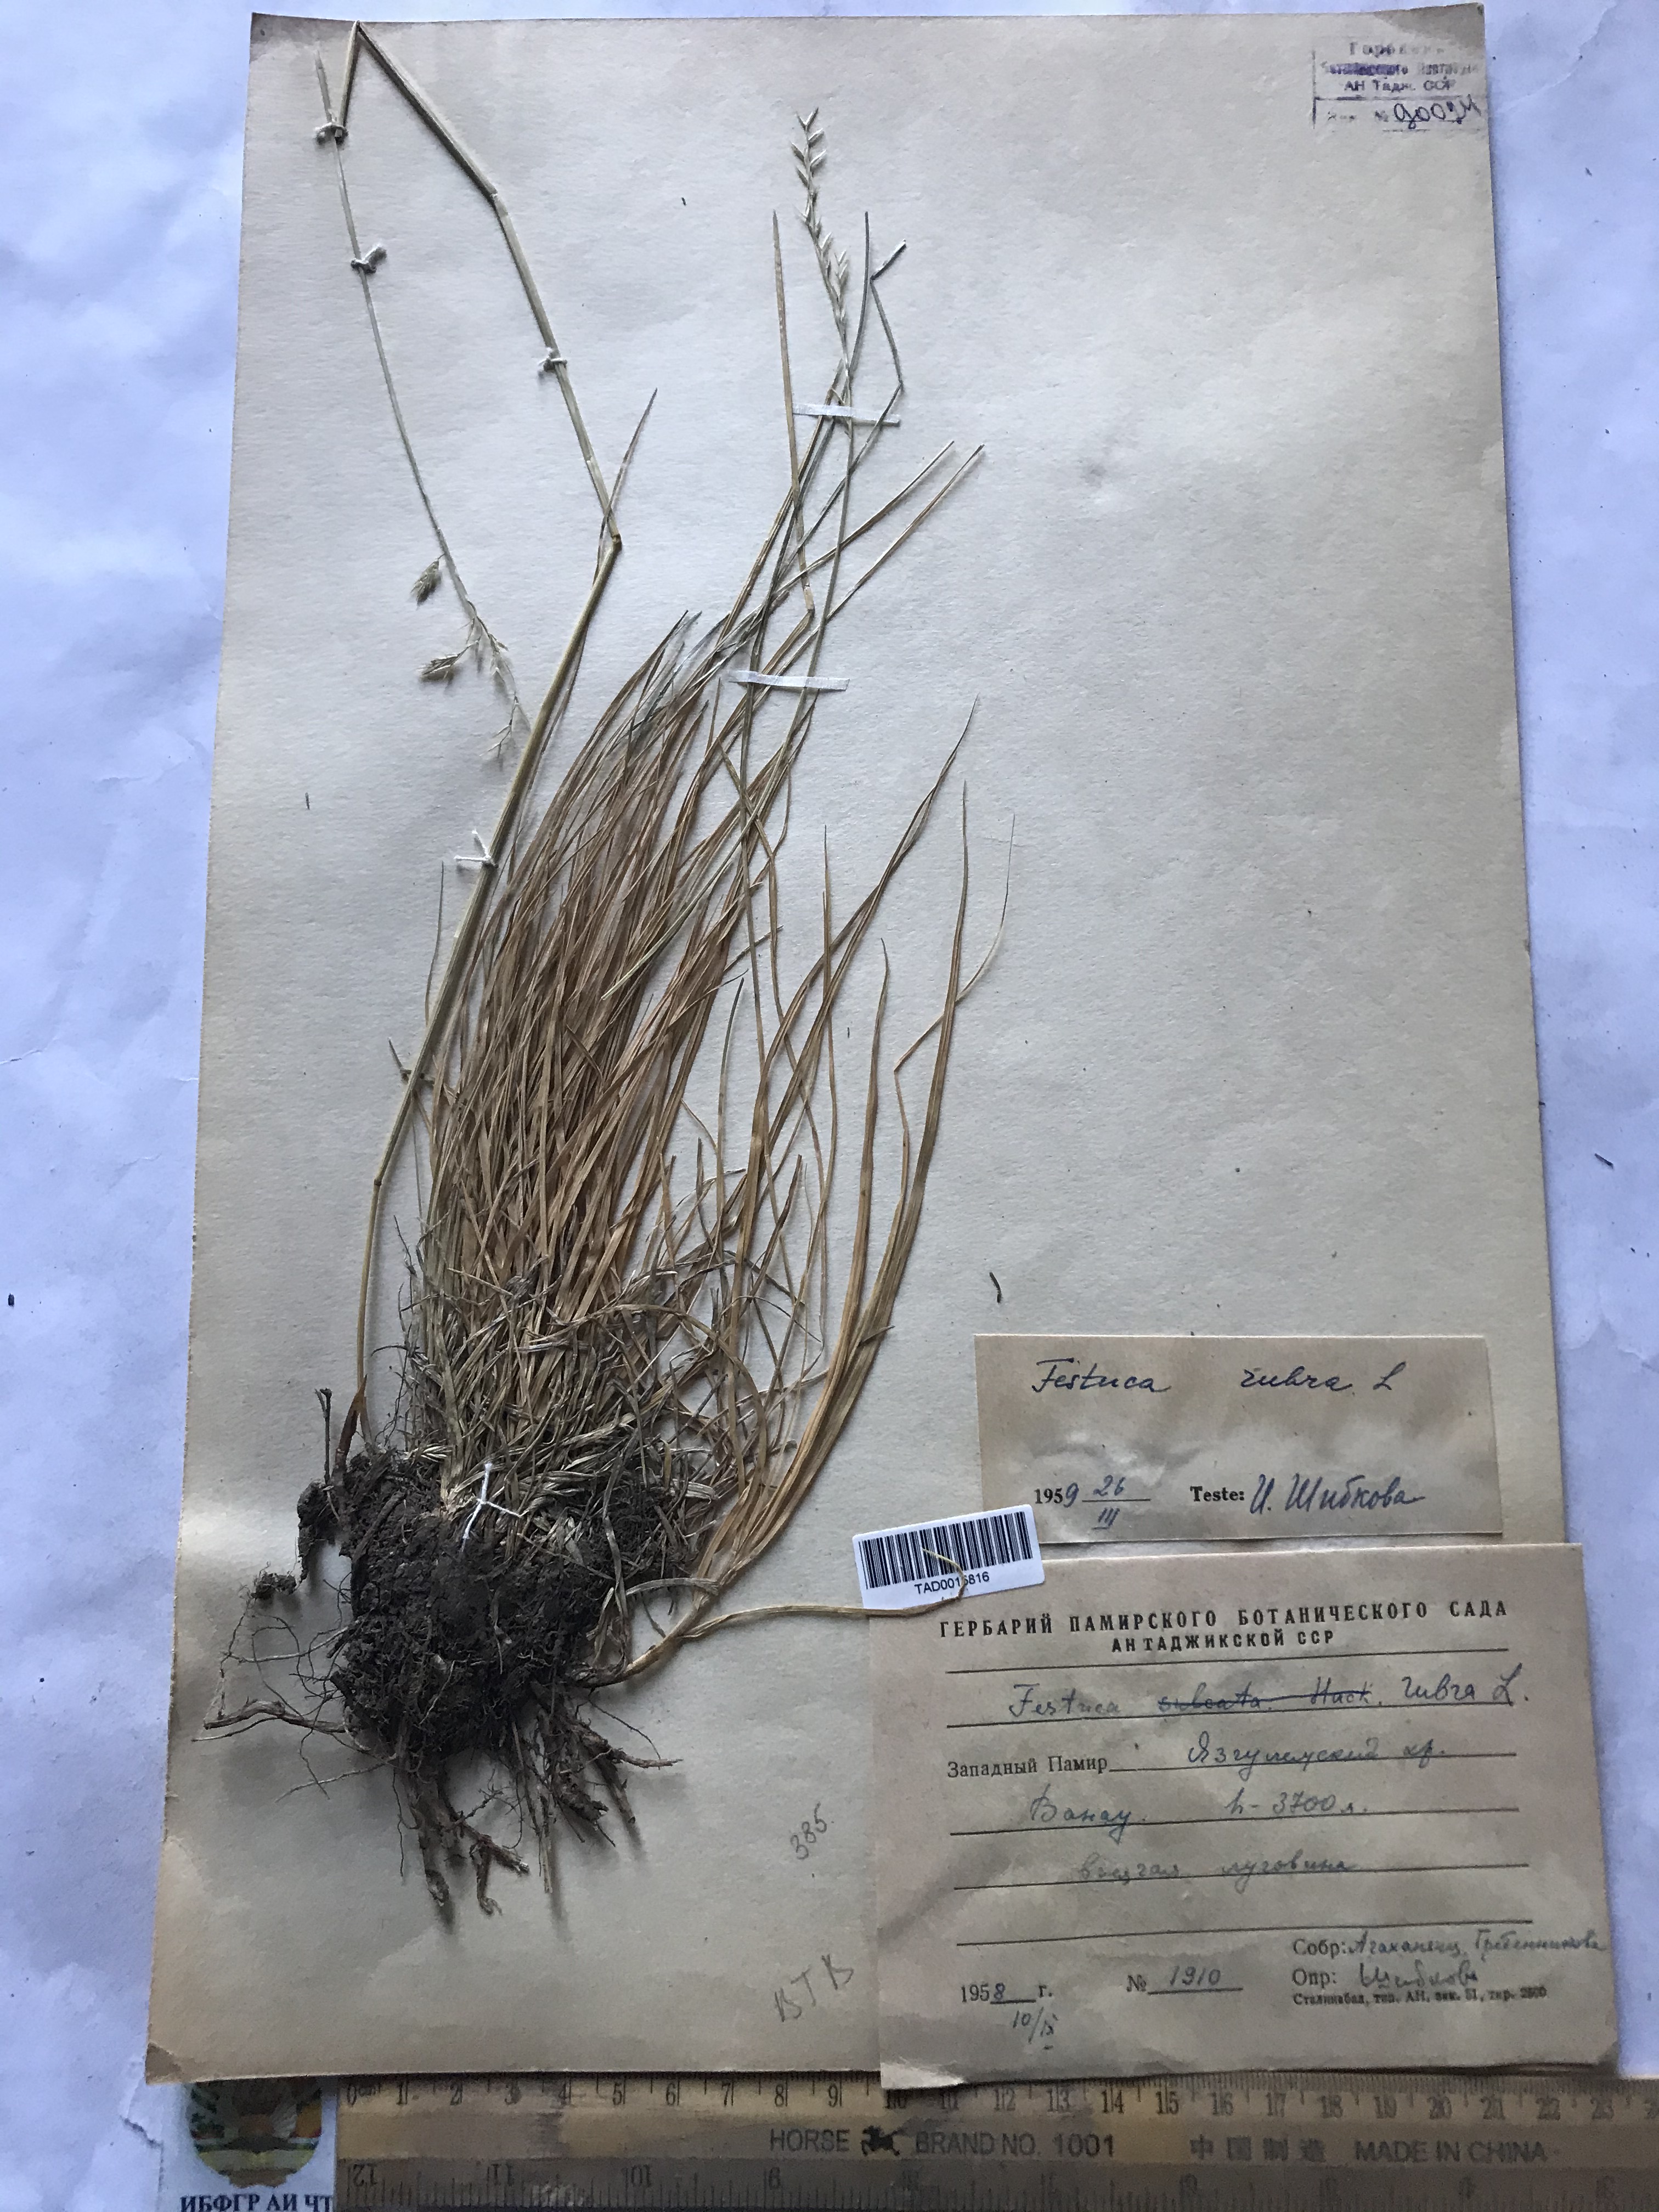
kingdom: Plantae
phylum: Tracheophyta
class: Liliopsida
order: Poales
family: Poaceae
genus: Festuca
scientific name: Festuca rubra
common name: Red fescue
